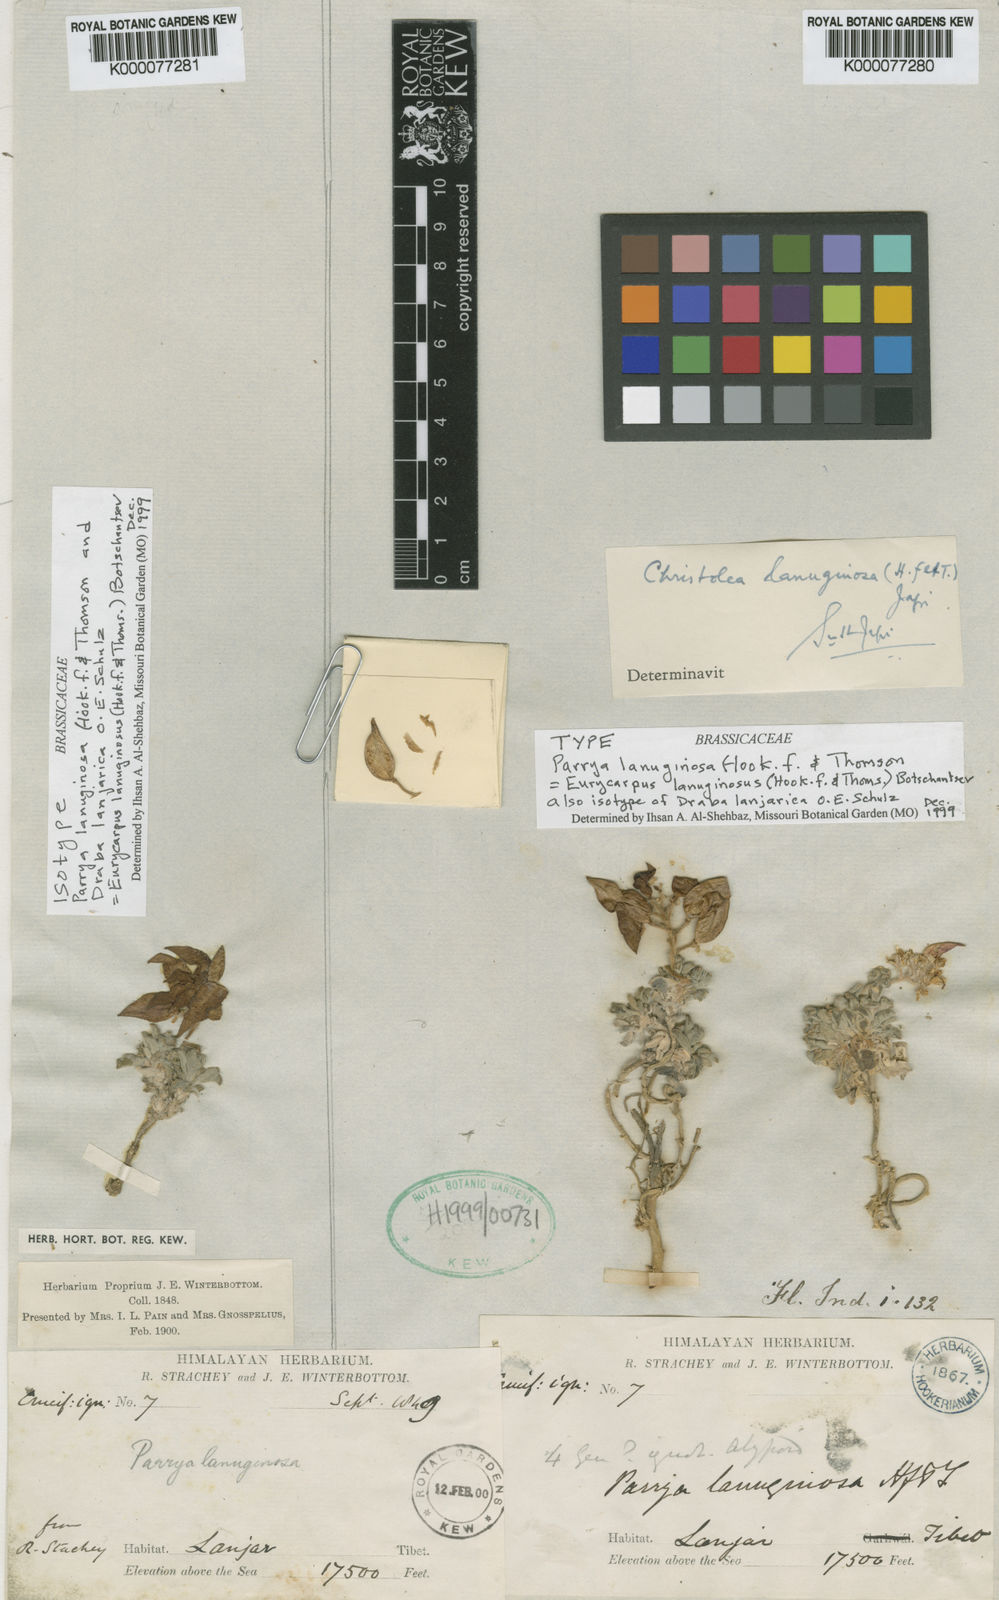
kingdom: Plantae
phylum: Tracheophyta
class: Magnoliopsida
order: Brassicales
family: Brassicaceae
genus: Solms-laubachia
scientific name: Solms-laubachia lanuginosa
